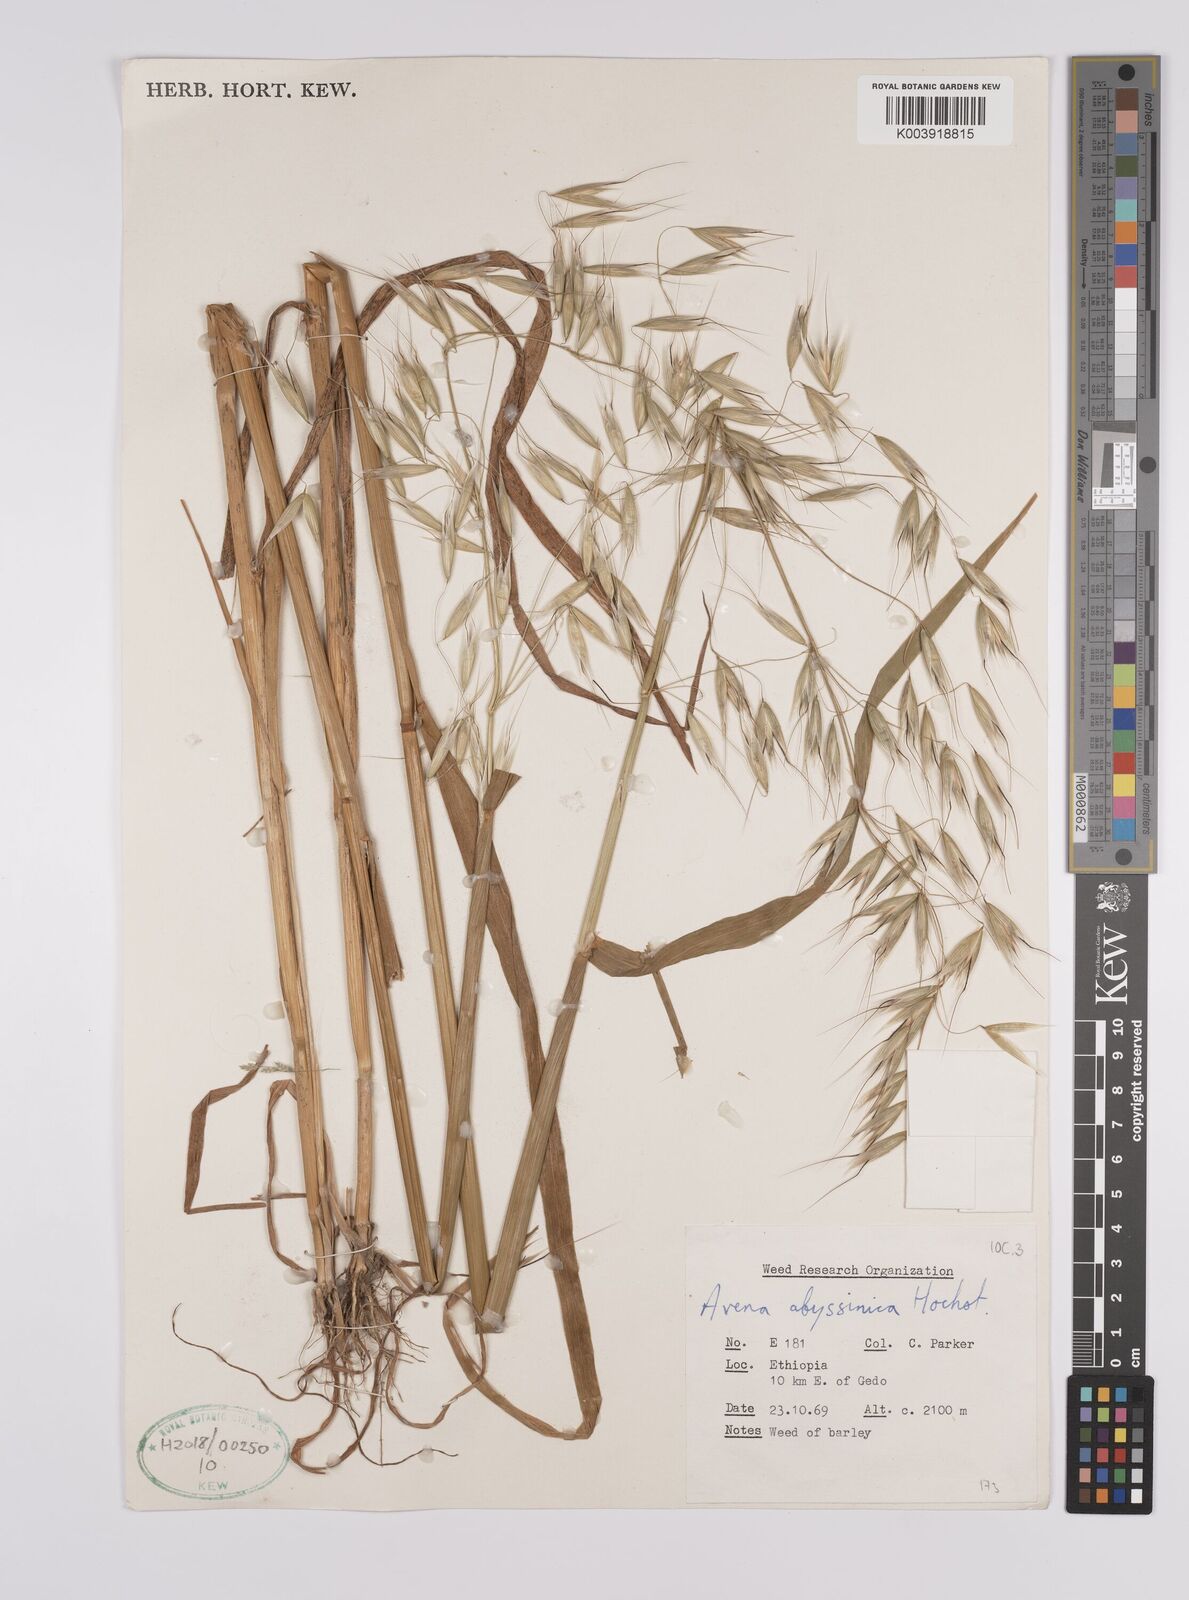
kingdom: Plantae
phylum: Tracheophyta
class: Liliopsida
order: Poales
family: Poaceae
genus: Avena
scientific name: Avena abyssinica
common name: Ethiopian oat
